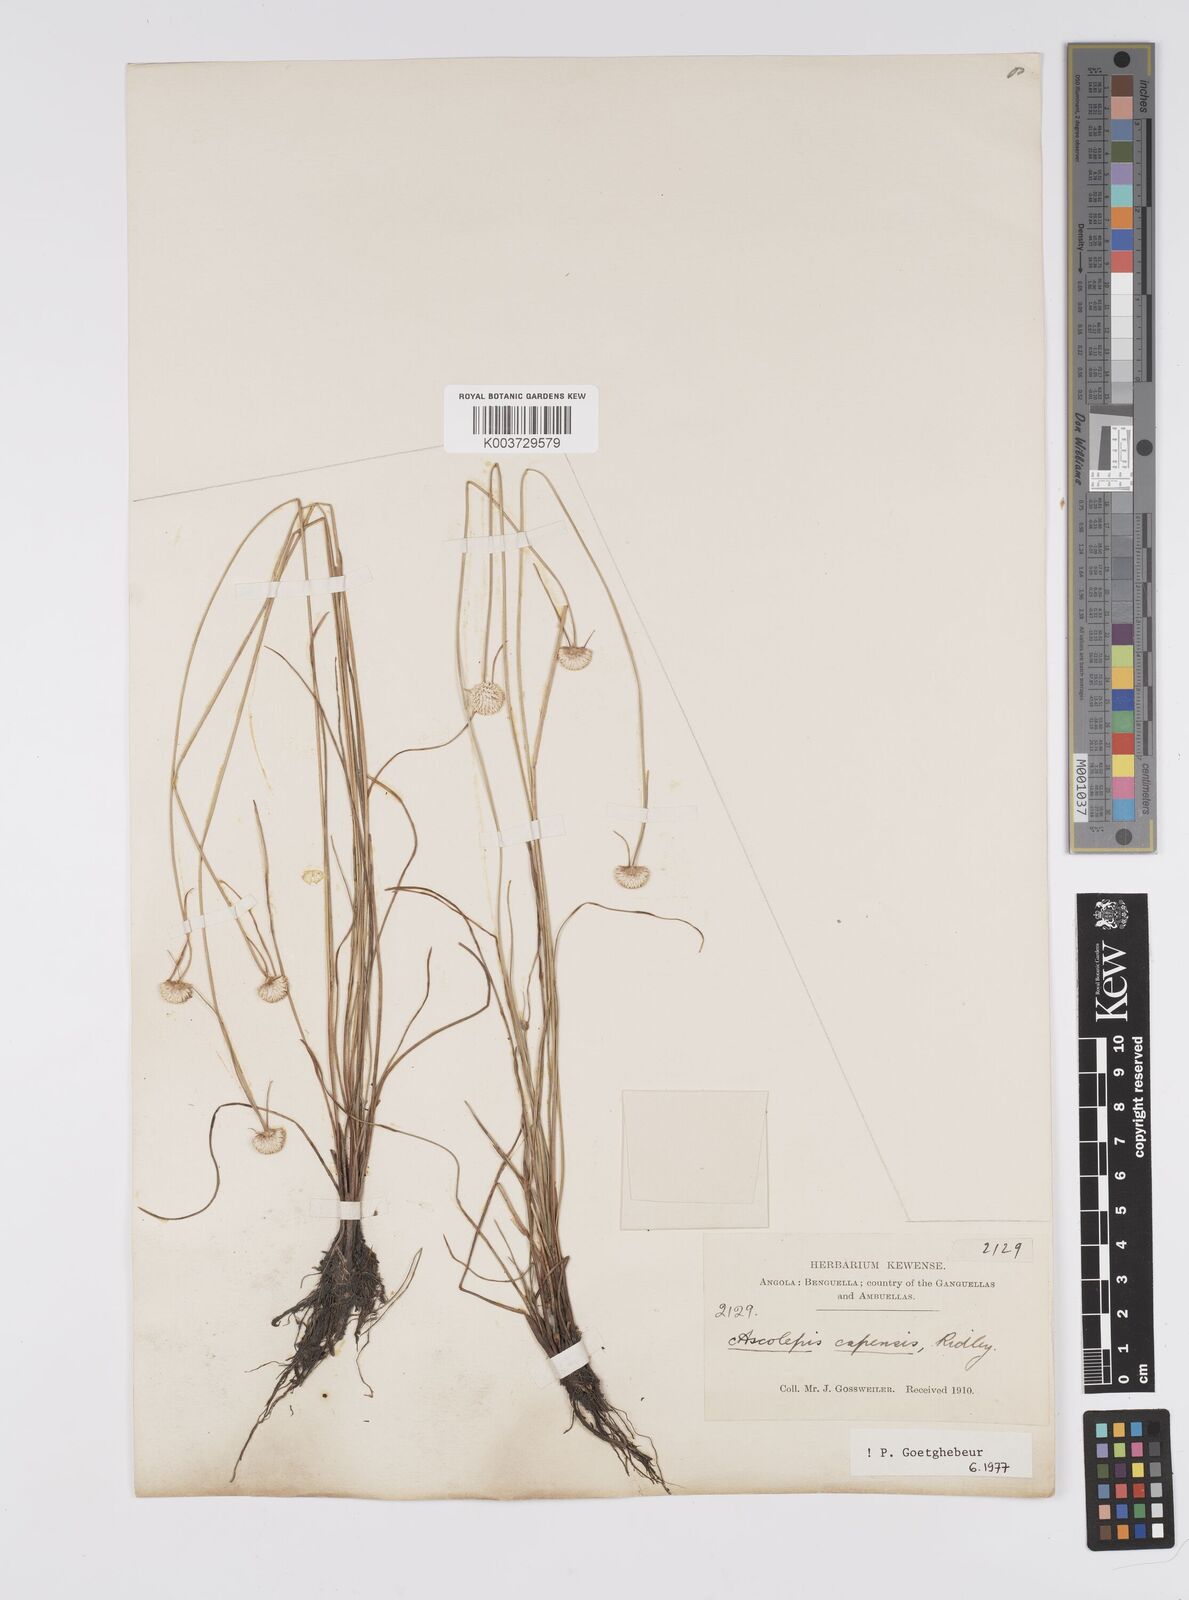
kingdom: Plantae
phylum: Tracheophyta
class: Liliopsida
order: Poales
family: Cyperaceae
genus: Cyperus
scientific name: Cyperus
